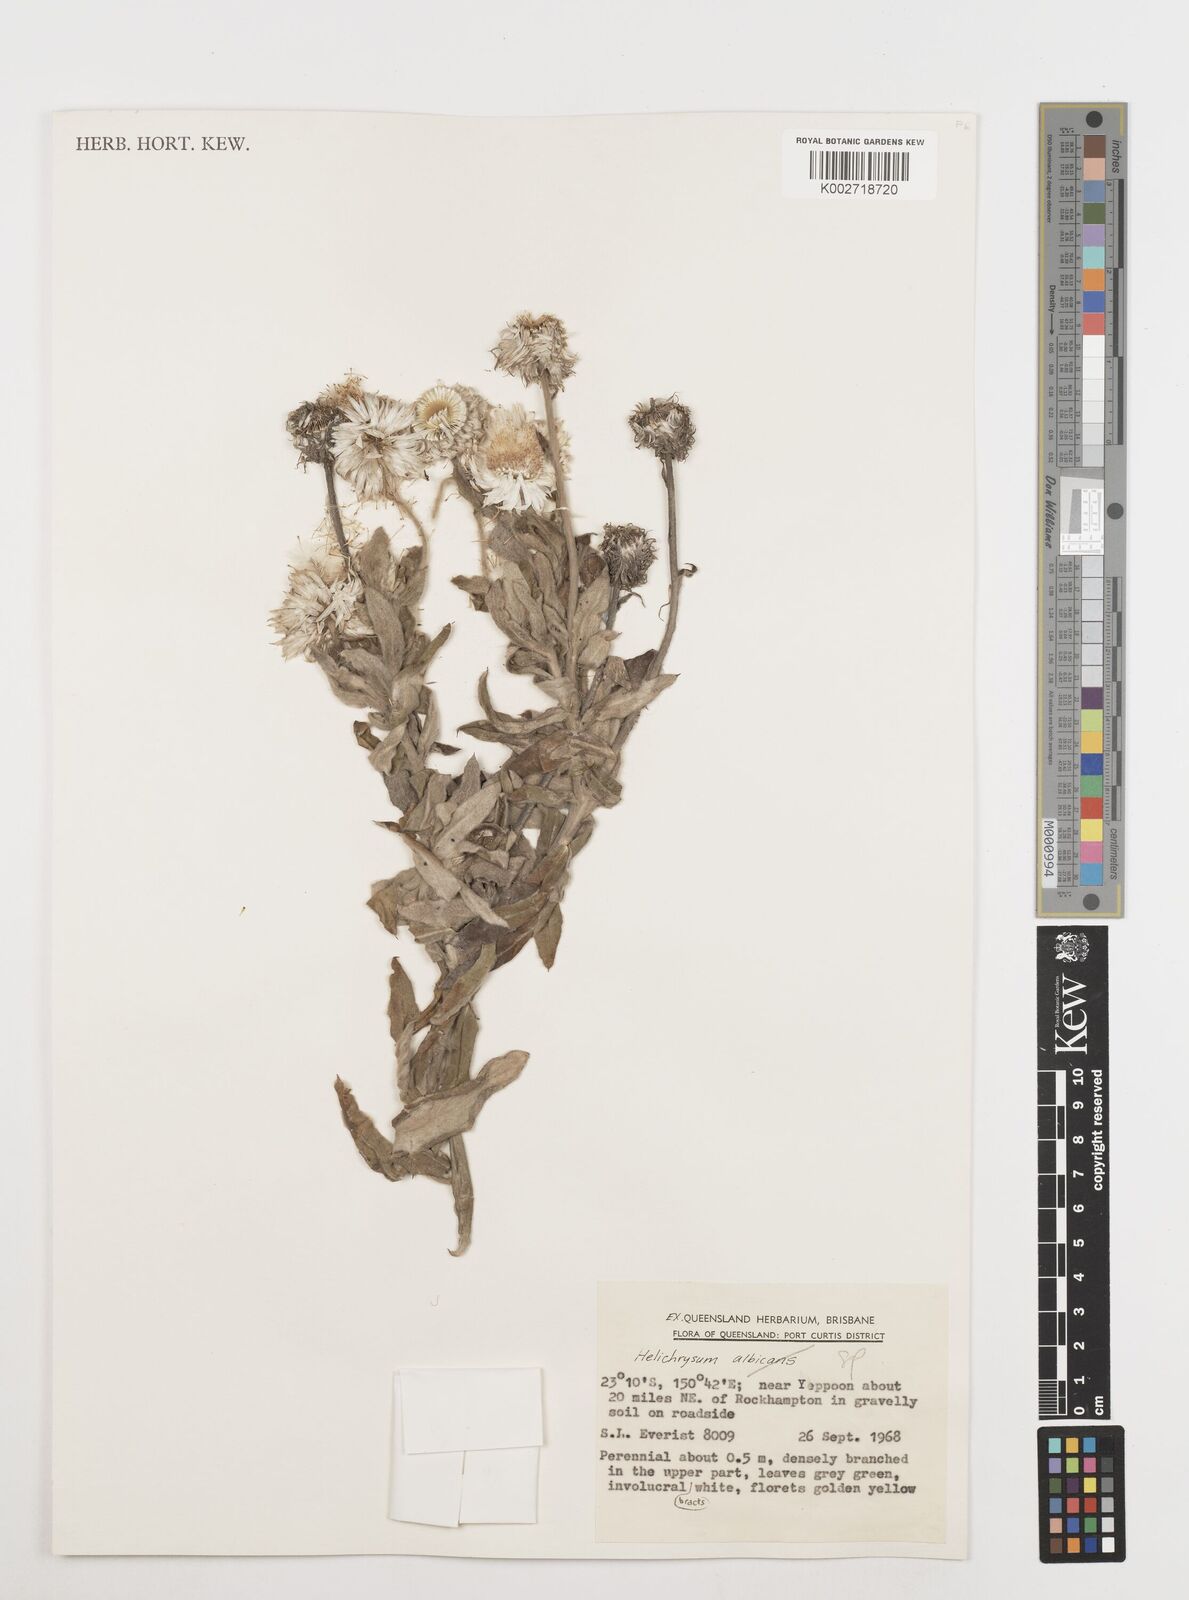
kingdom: Plantae
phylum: Tracheophyta
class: Magnoliopsida
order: Asterales
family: Asteraceae
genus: Coronidium
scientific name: Coronidium
